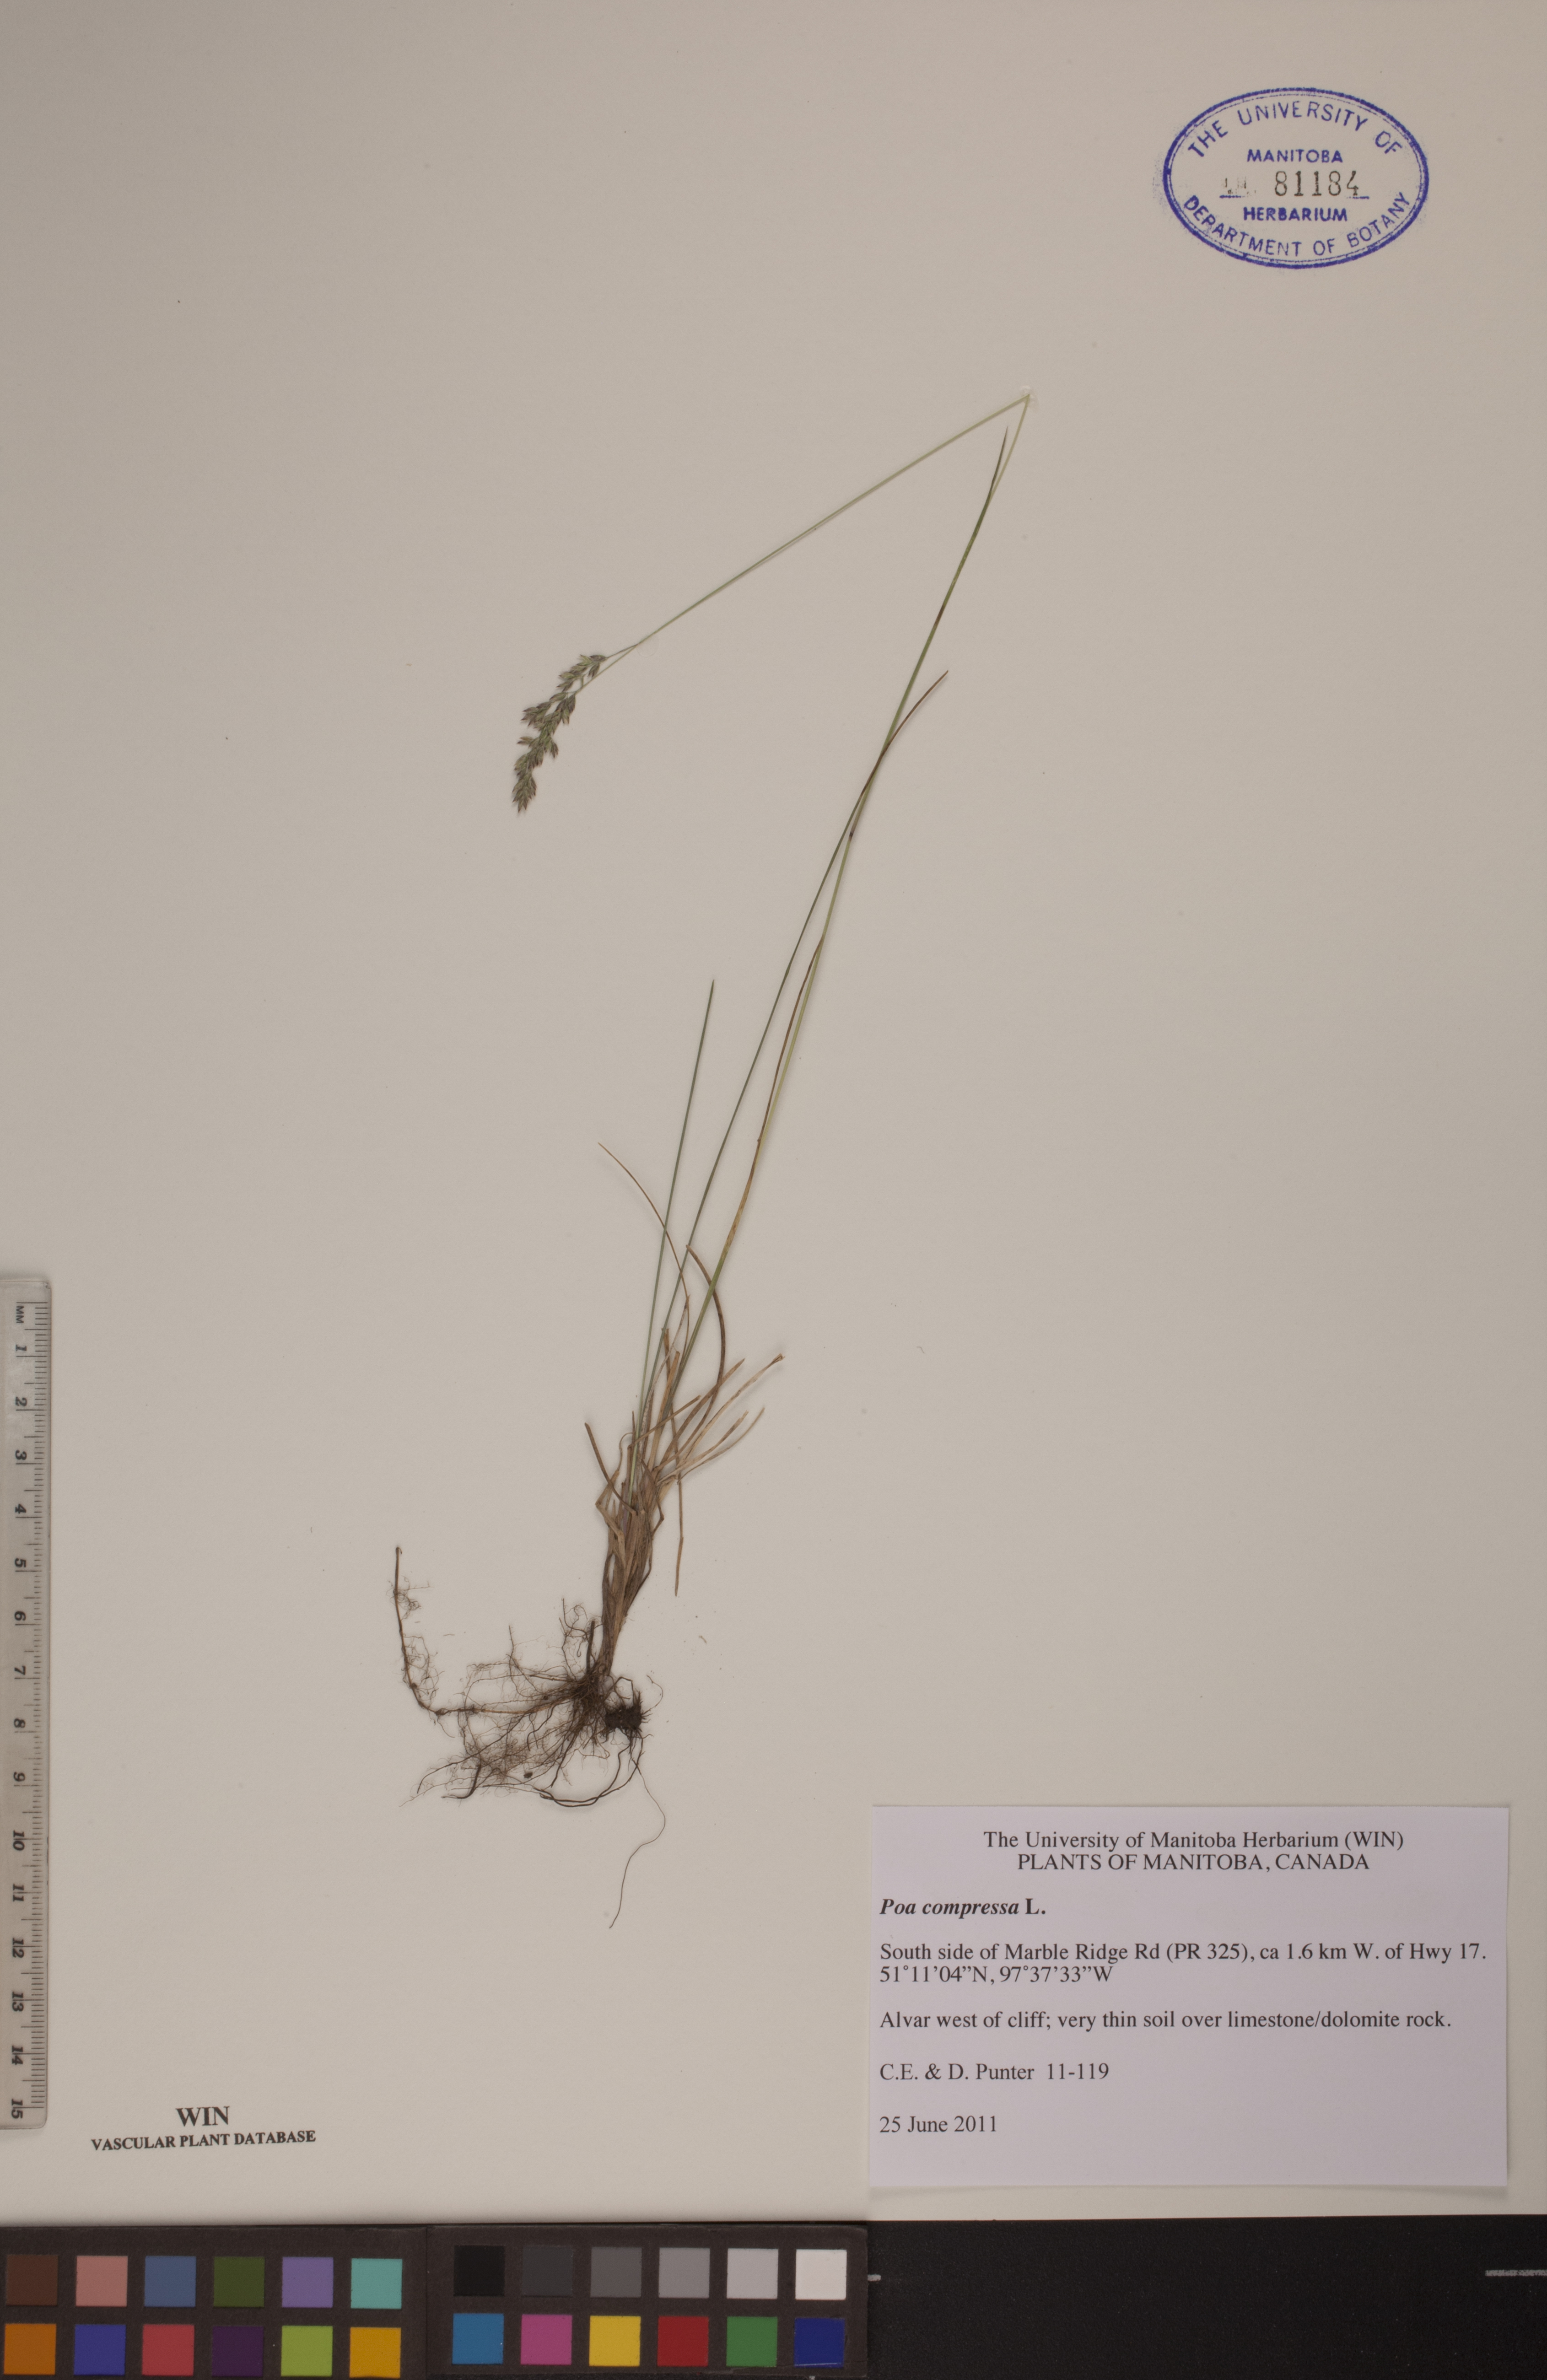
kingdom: Plantae
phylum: Tracheophyta
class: Liliopsida
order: Poales
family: Poaceae
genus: Poa
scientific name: Poa compressa
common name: Canada bluegrass
